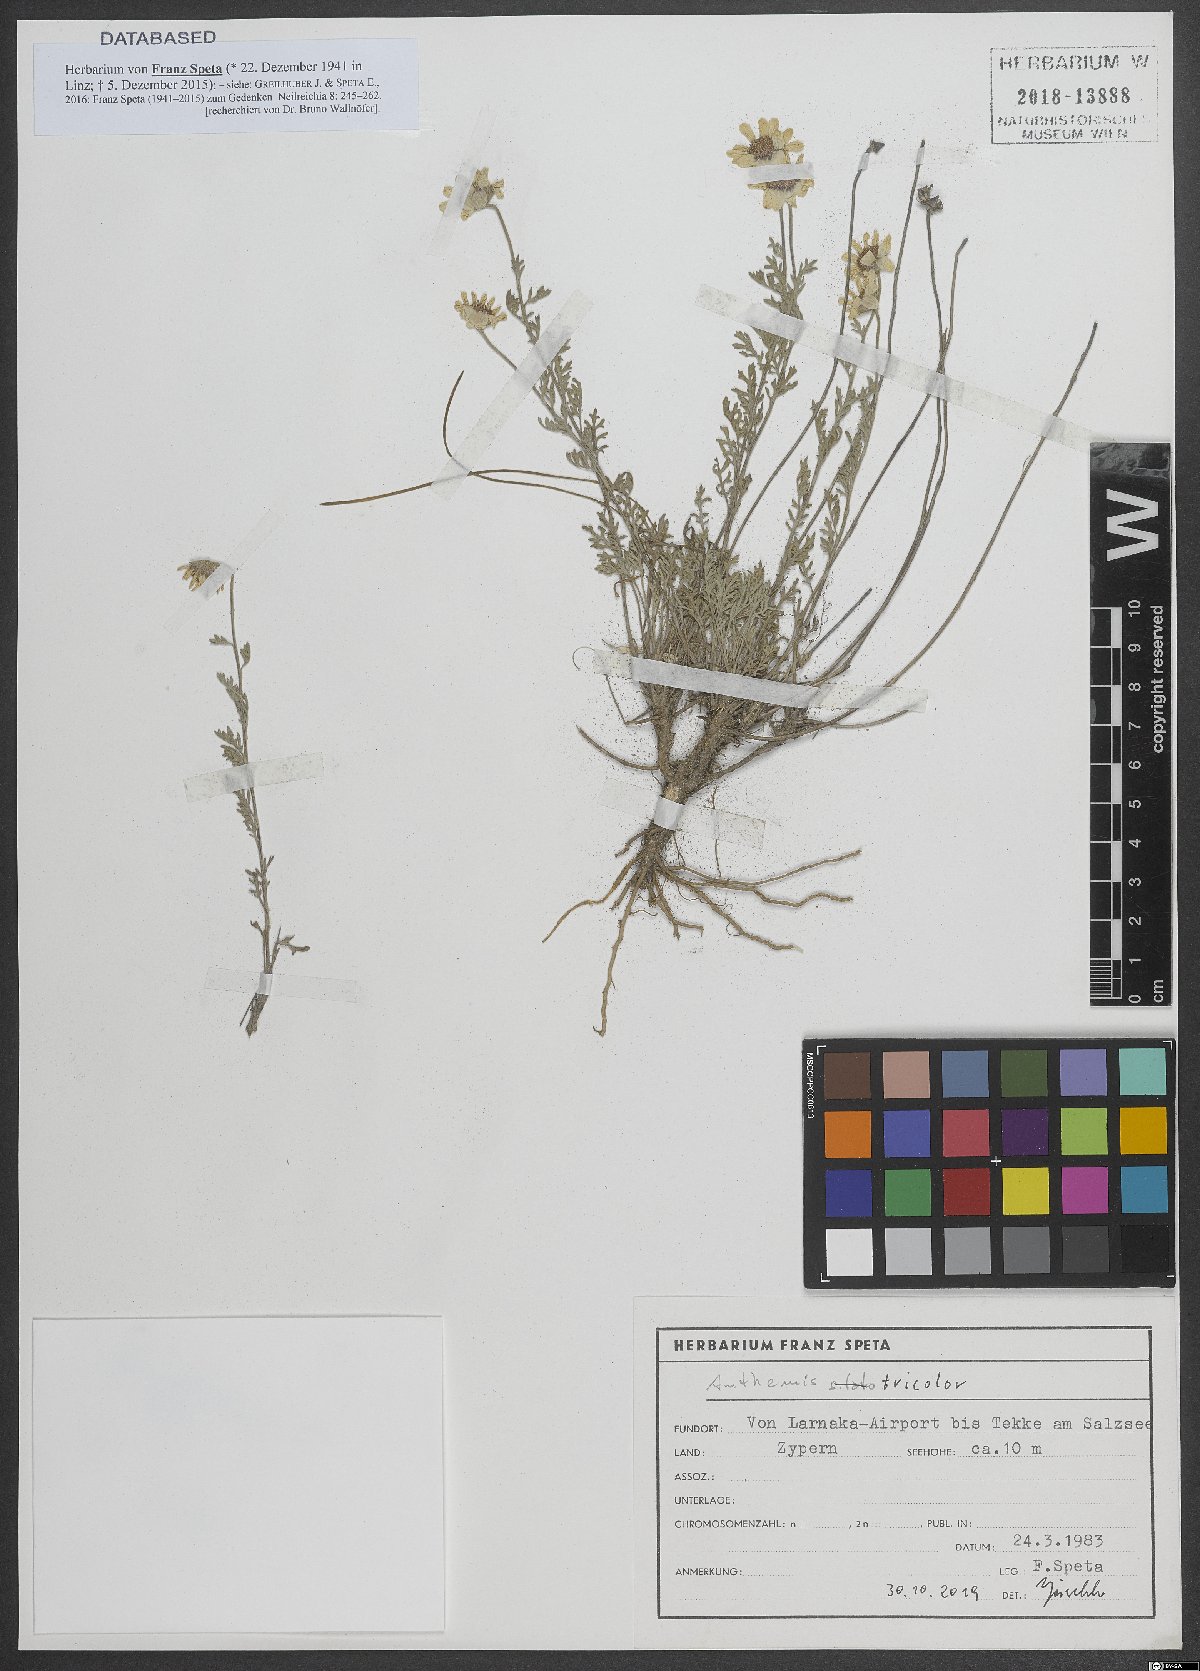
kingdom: Plantae
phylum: Tracheophyta
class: Magnoliopsida
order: Asterales
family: Asteraceae
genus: Anthemis
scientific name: Anthemis tricolor
